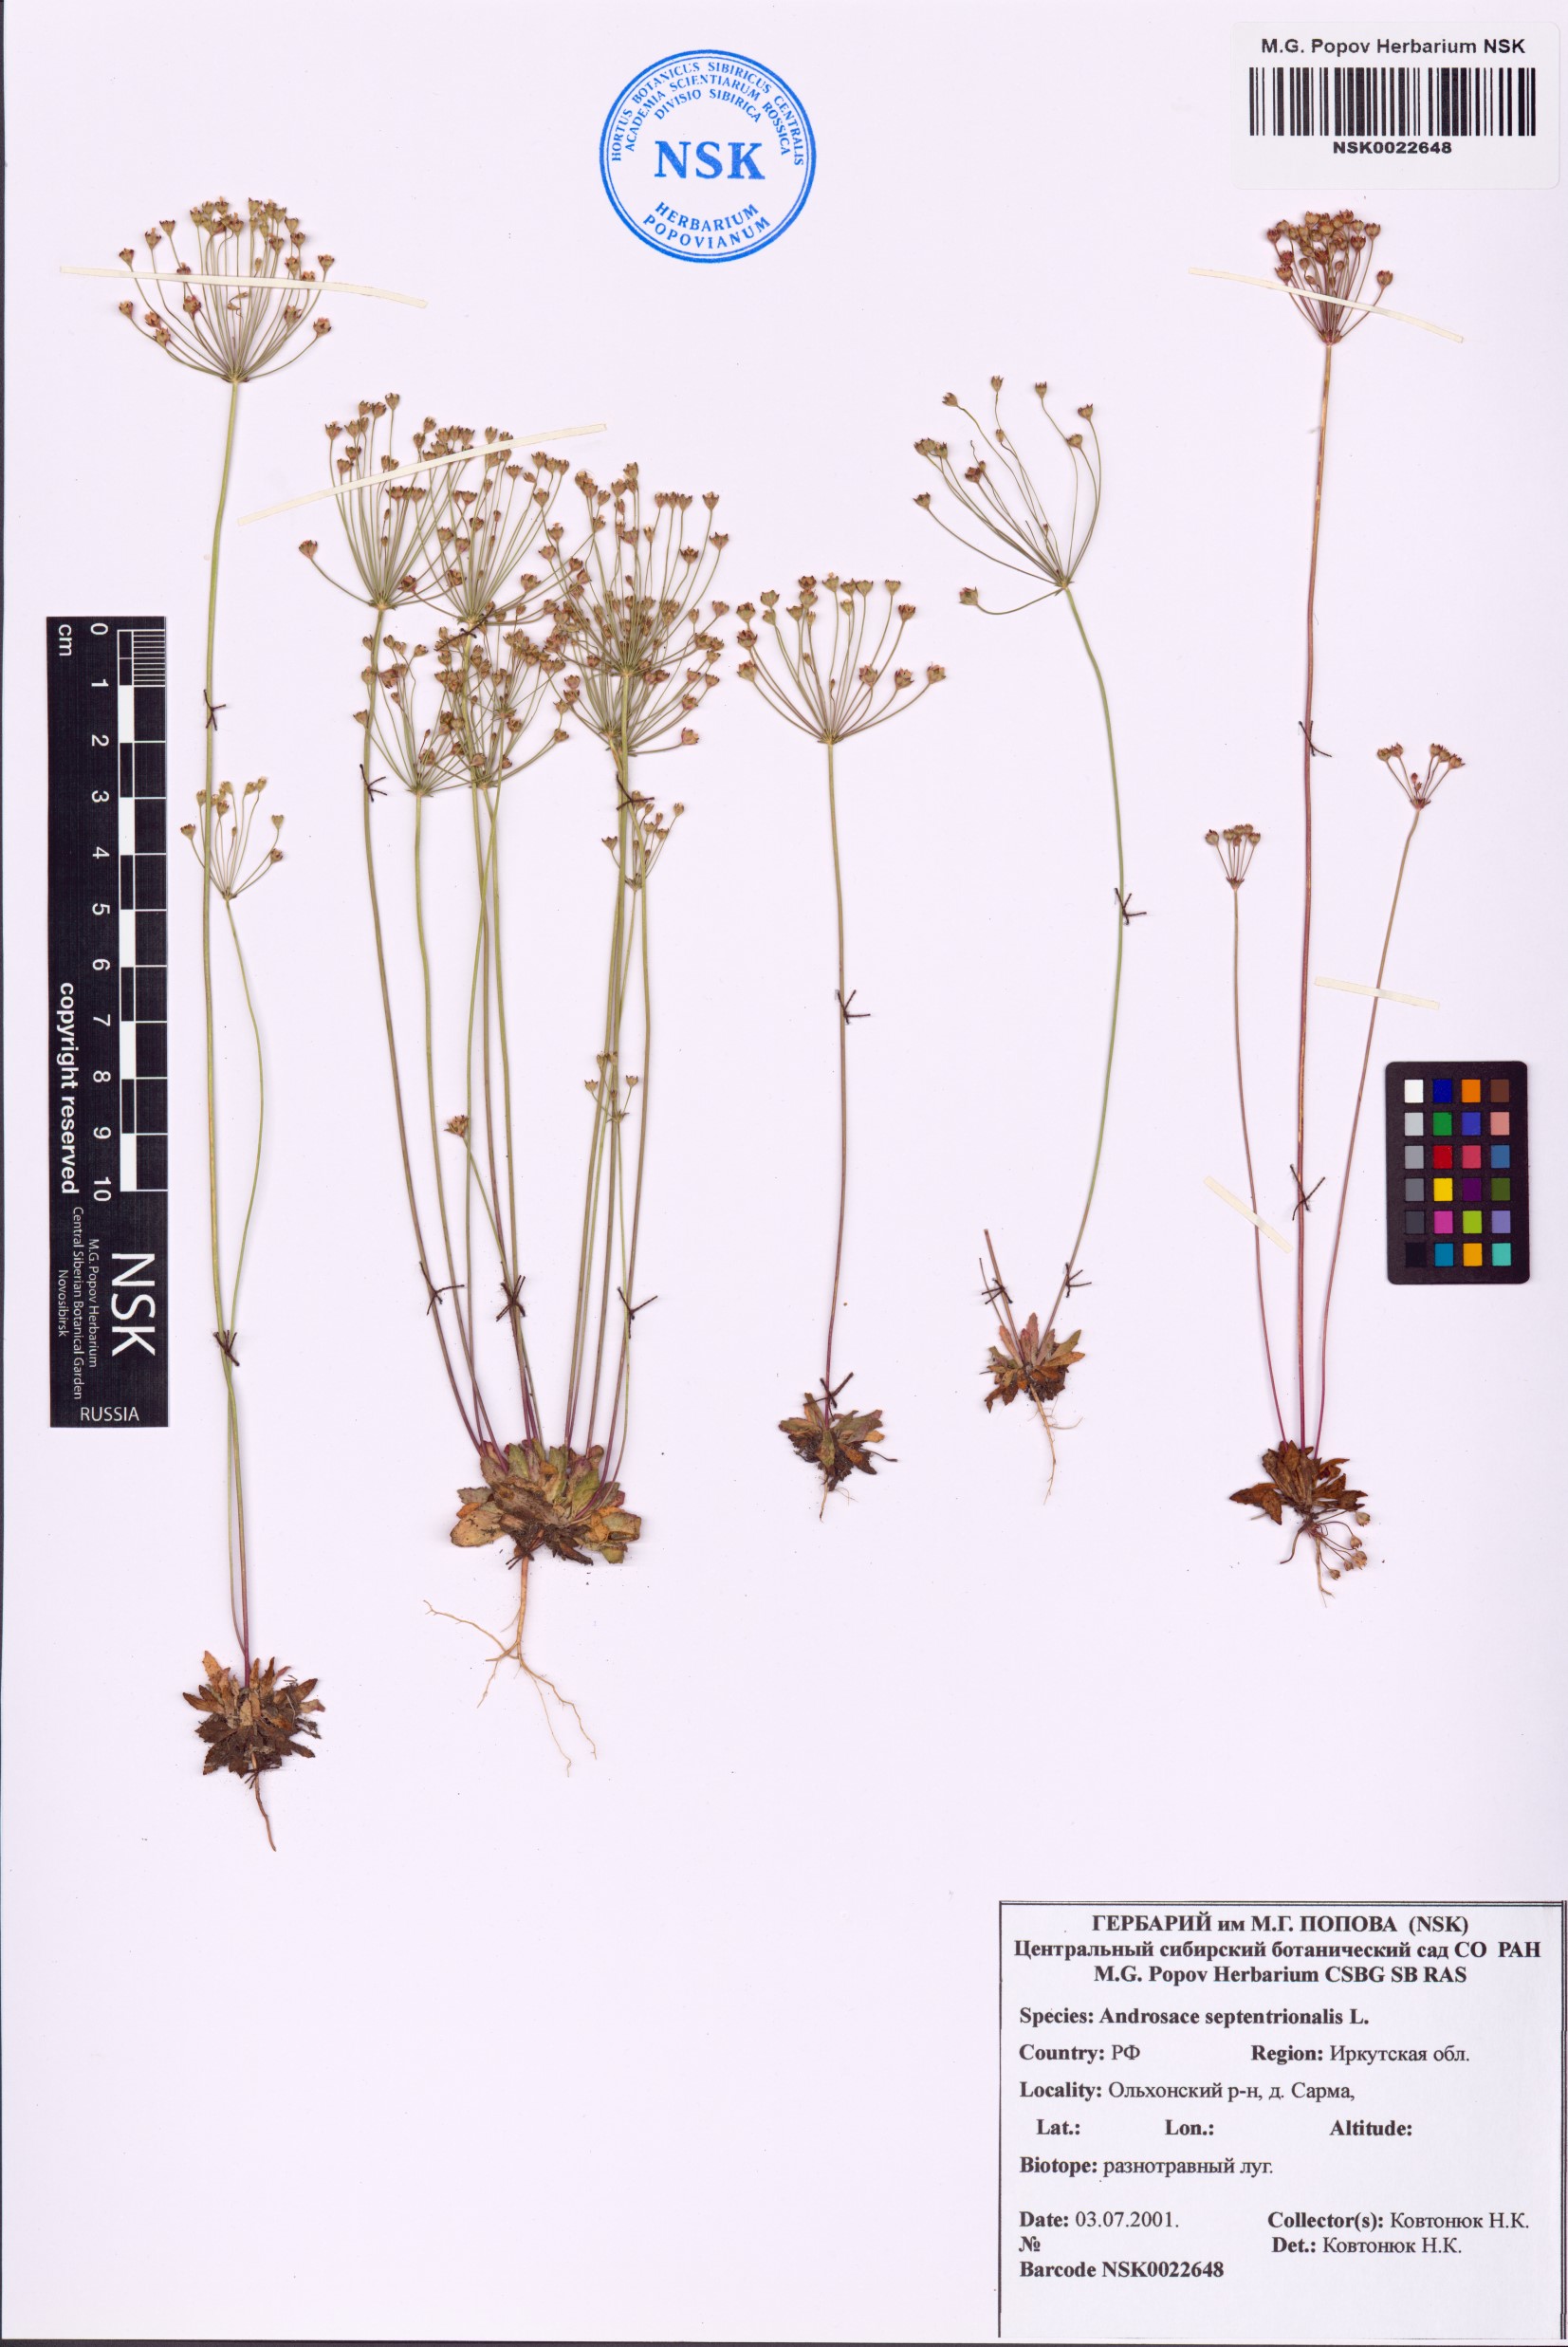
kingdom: Plantae
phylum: Tracheophyta
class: Magnoliopsida
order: Ericales
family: Primulaceae
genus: Androsace
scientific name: Androsace septentrionalis
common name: Hairy northern fairy-candelabra
